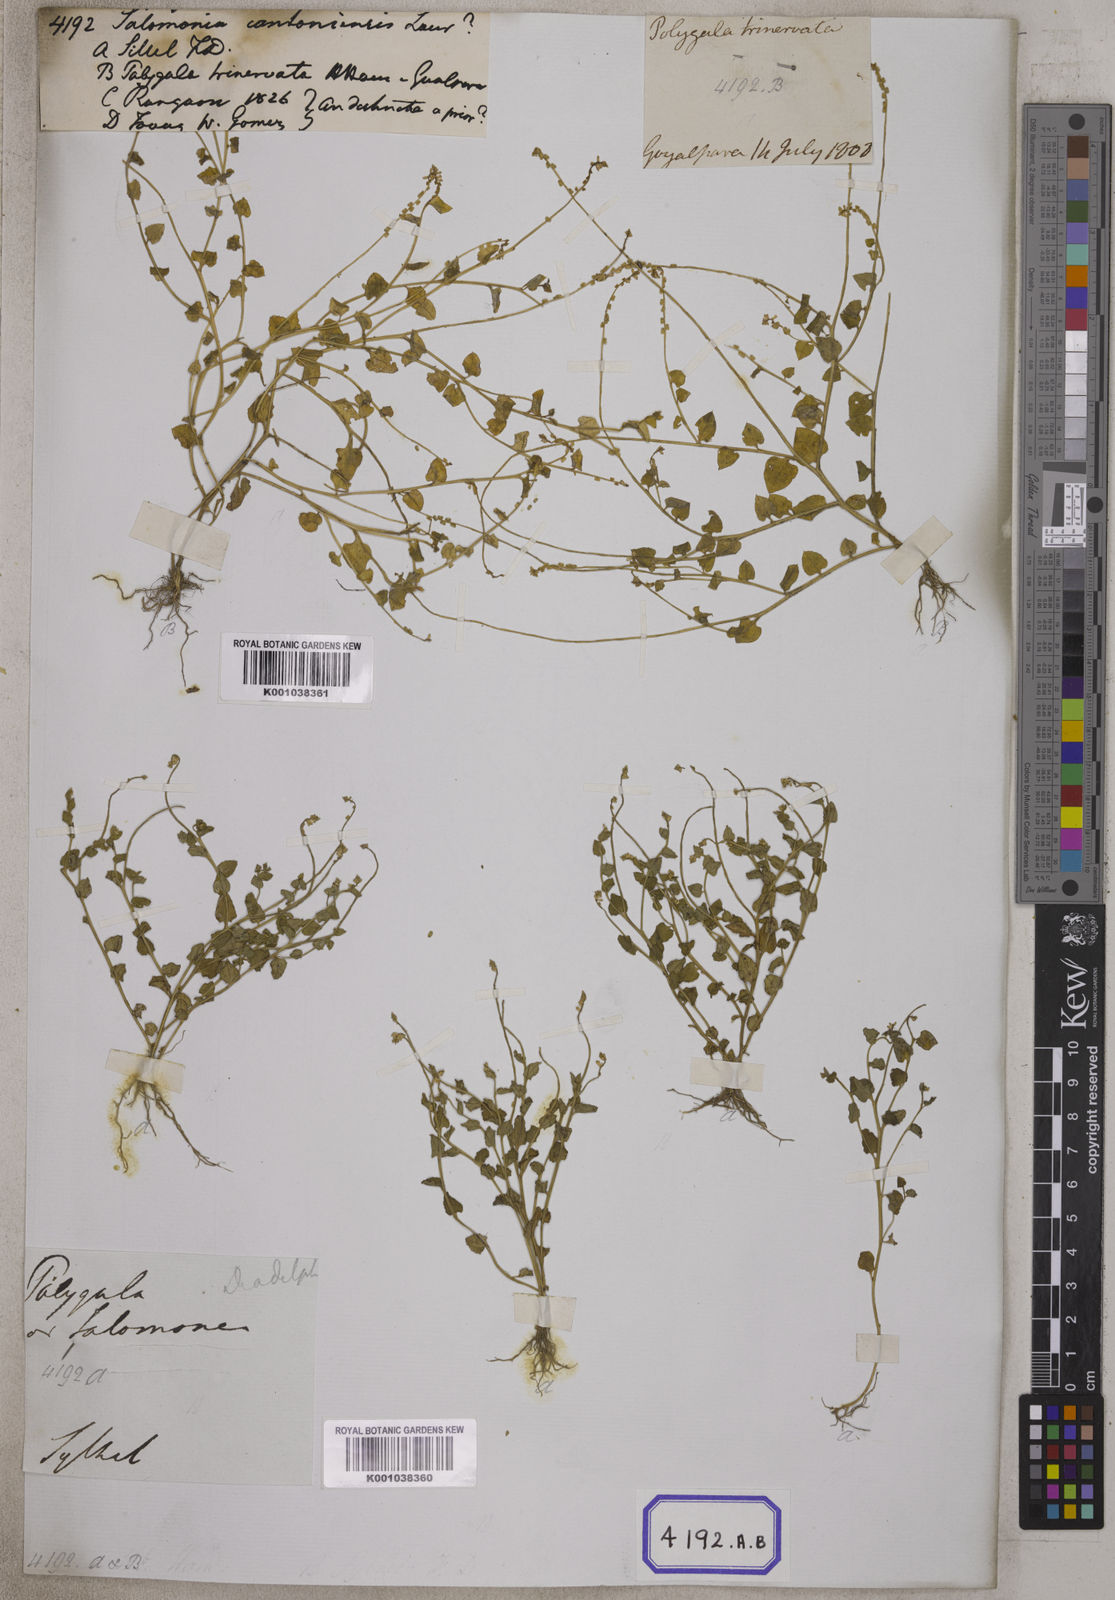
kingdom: Plantae
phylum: Tracheophyta
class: Magnoliopsida
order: Fabales
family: Polygalaceae
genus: Salomonia
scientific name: Salomonia cantoniensis
